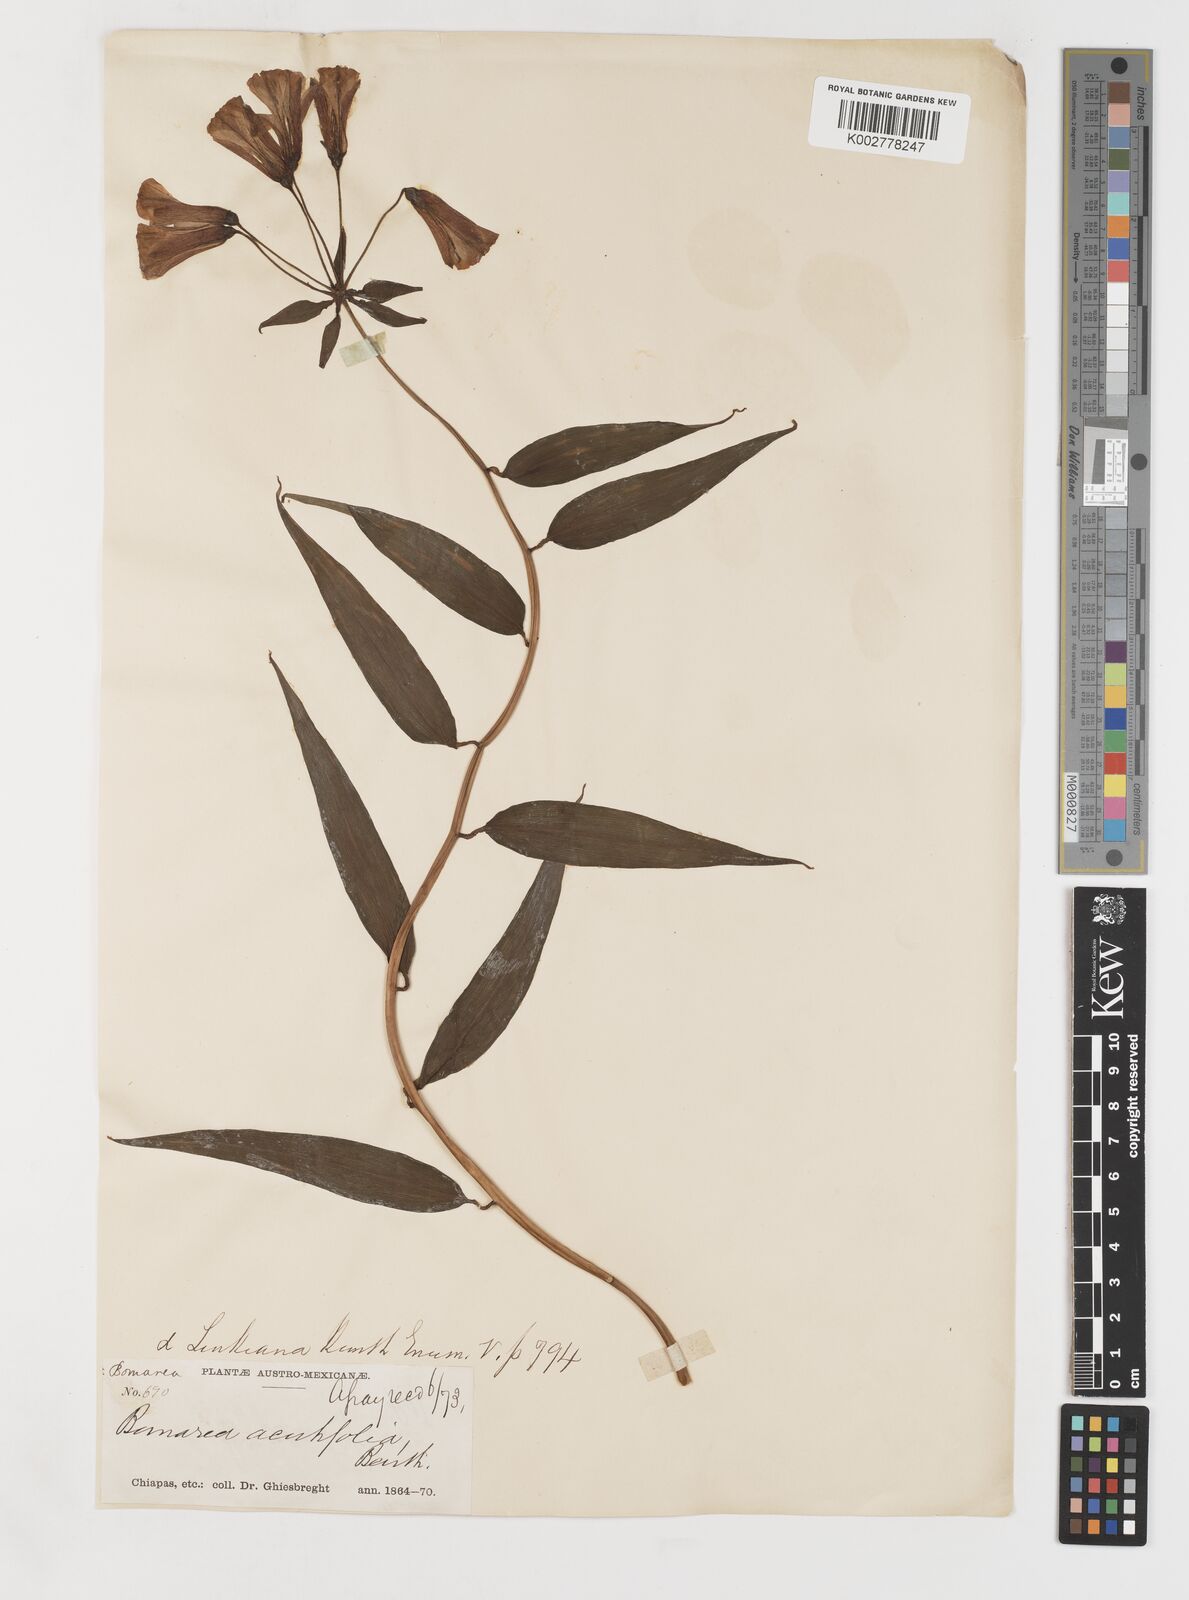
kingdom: Plantae
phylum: Tracheophyta
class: Liliopsida
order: Liliales
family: Alstroemeriaceae
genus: Bomarea
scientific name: Bomarea acutifolia
